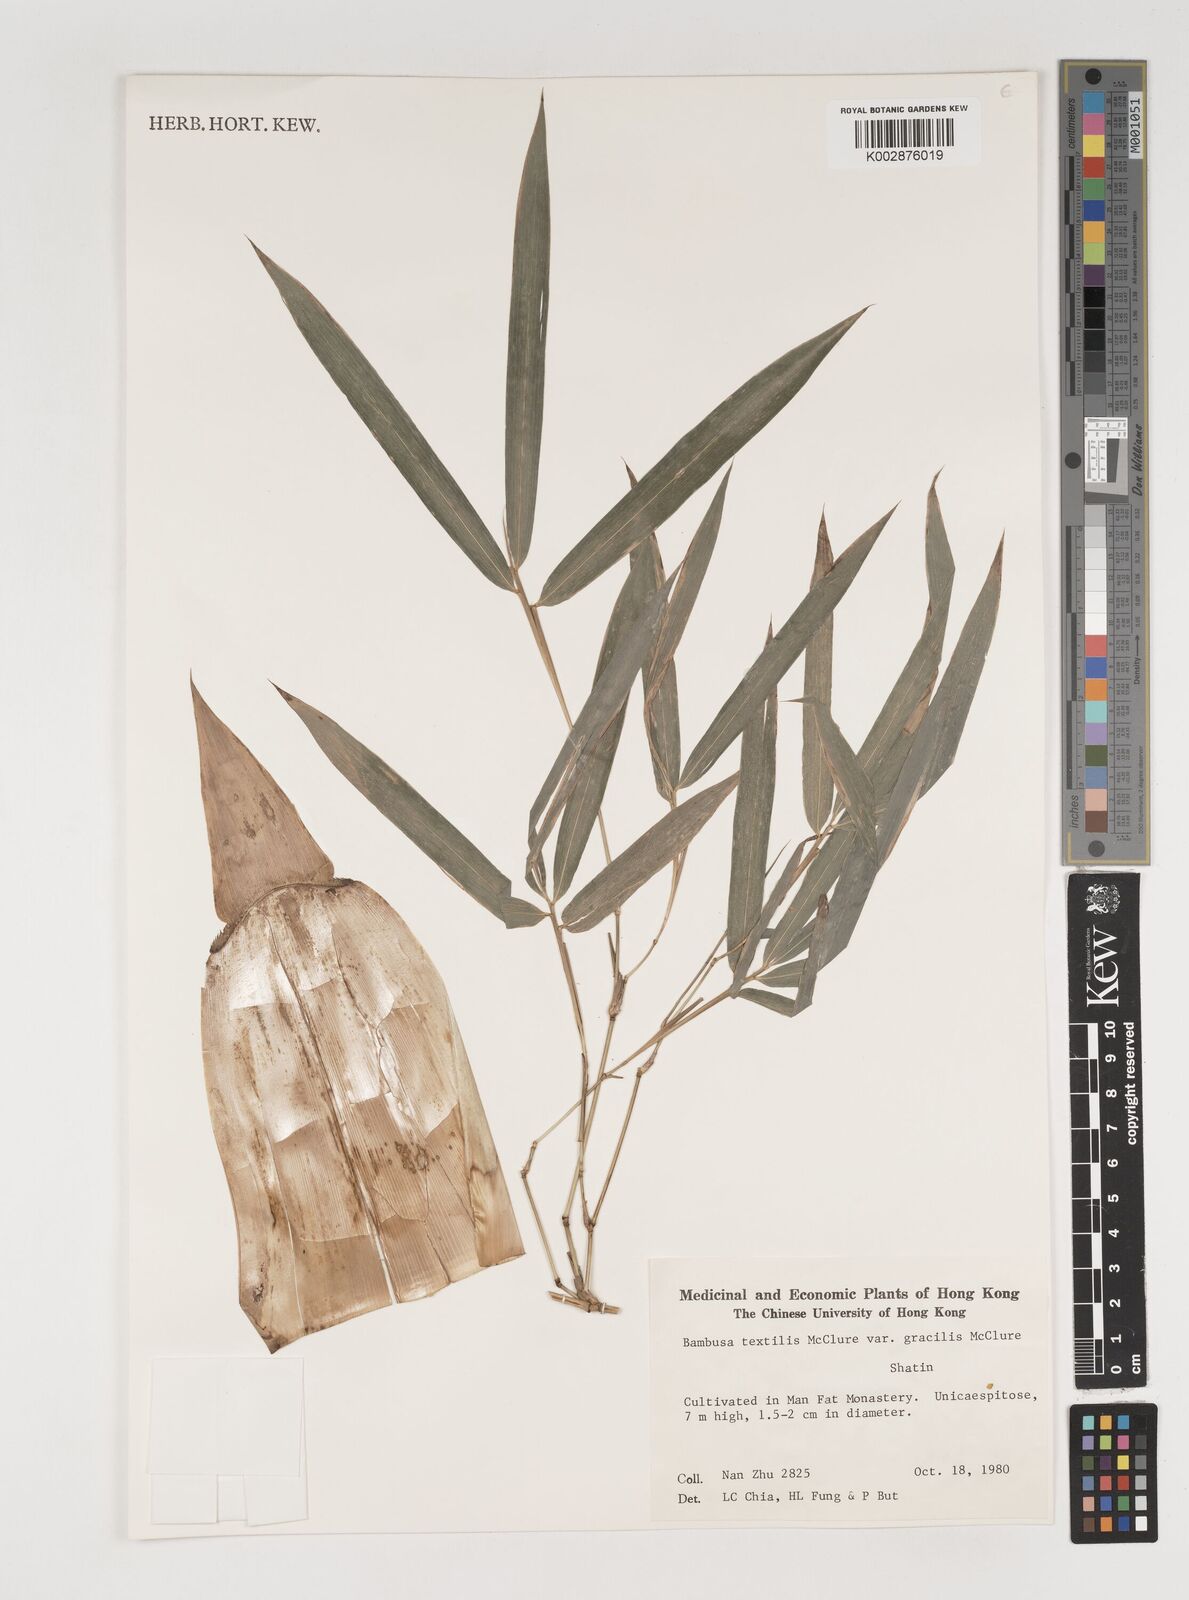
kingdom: Plantae
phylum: Tracheophyta
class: Liliopsida
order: Poales
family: Poaceae
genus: Bambusa
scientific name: Bambusa
